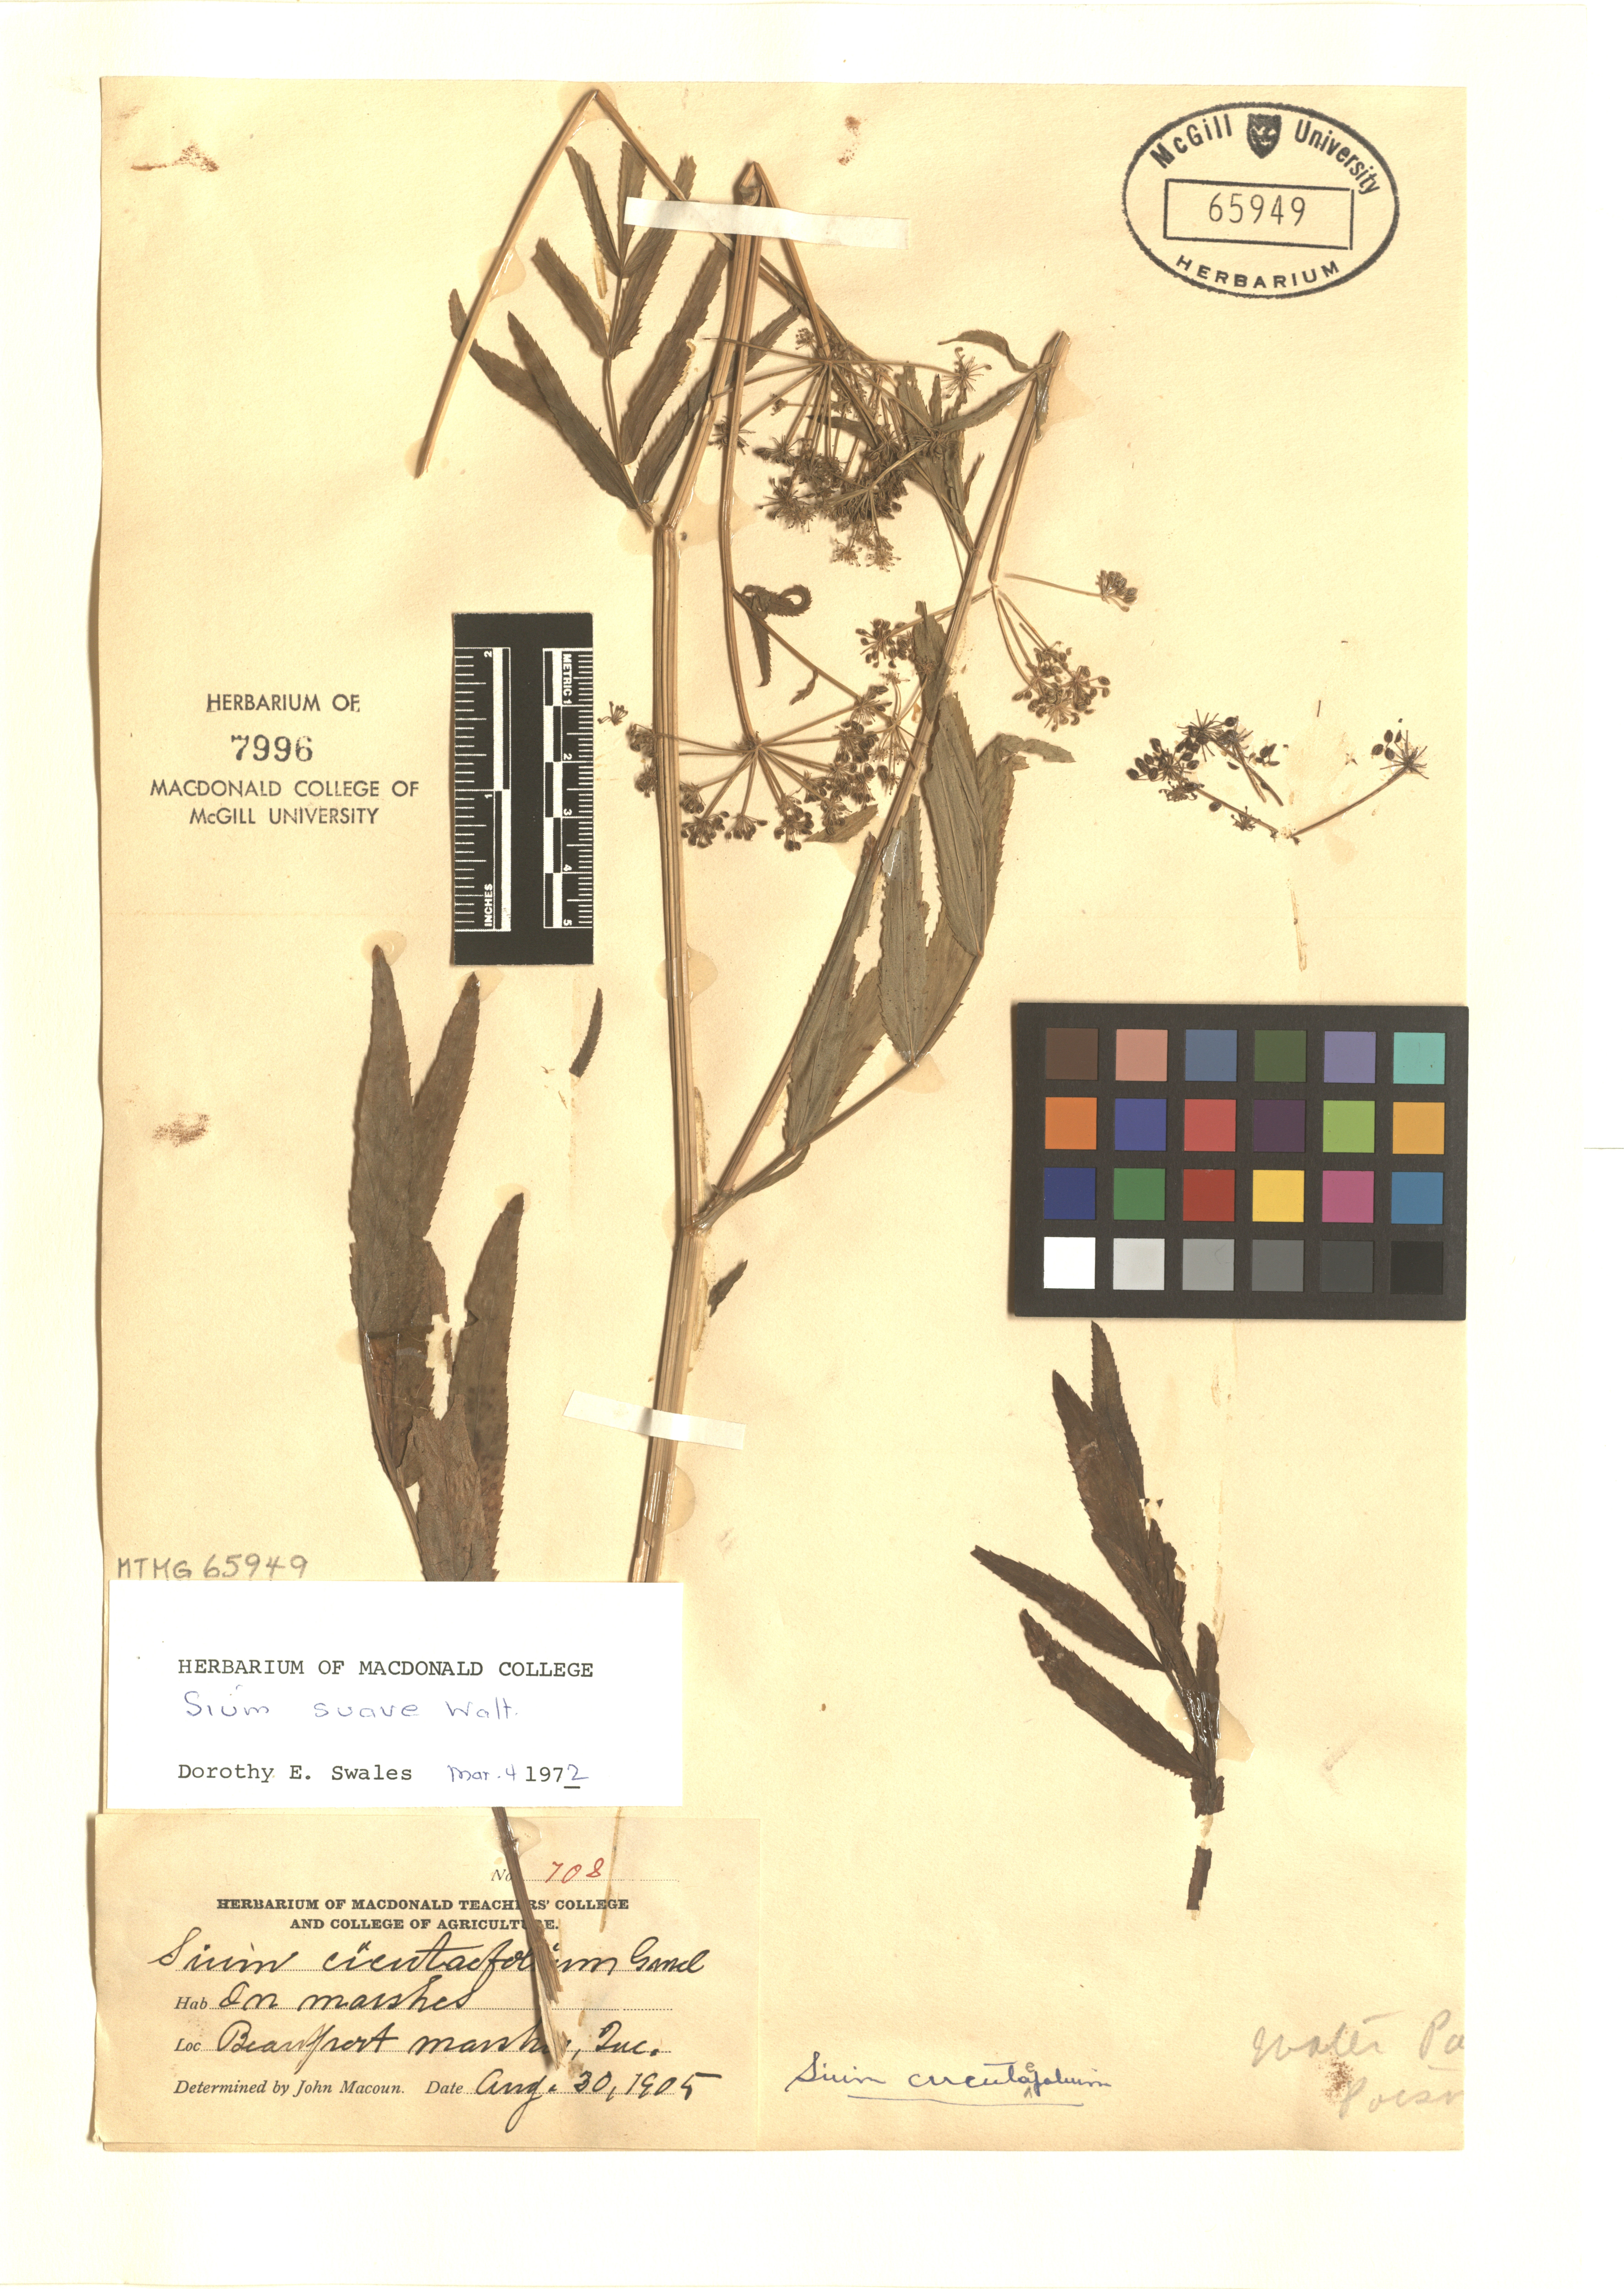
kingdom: Plantae
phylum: Tracheophyta
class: Magnoliopsida
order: Apiales
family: Apiaceae
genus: Sium
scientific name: Sium suave
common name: Hemlock water-parsnip
